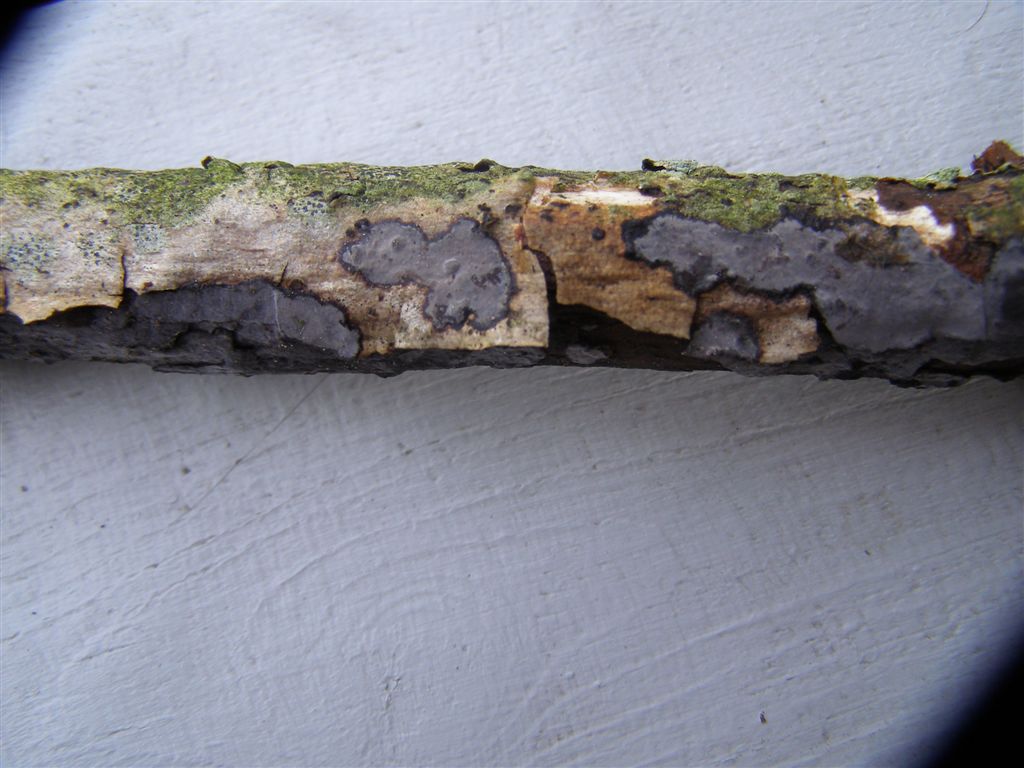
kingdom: Fungi
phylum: Basidiomycota
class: Agaricomycetes
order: Russulales
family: Peniophoraceae
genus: Peniophora
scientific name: Peniophora limitata
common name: mørkrandet voksskind
